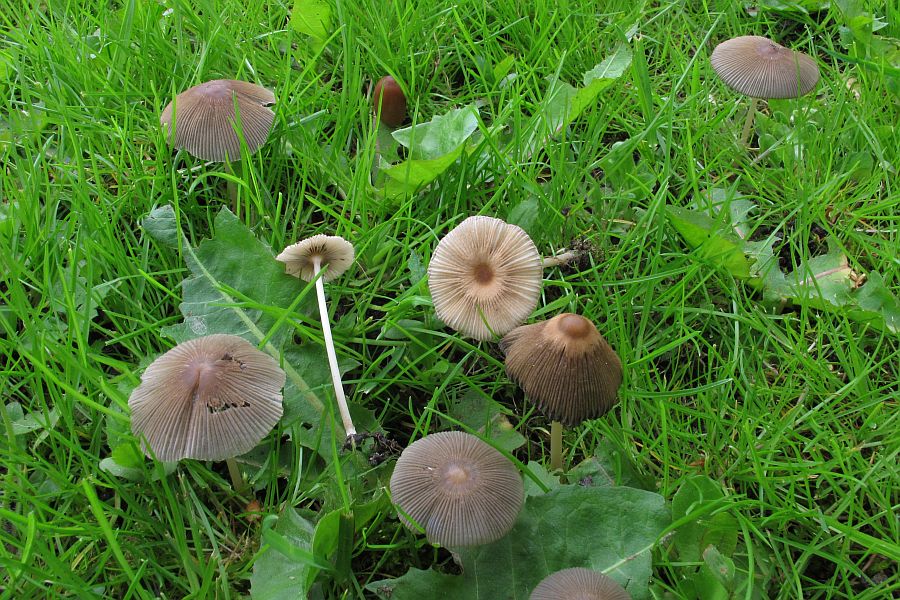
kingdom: Fungi
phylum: Basidiomycota
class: Agaricomycetes
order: Agaricales
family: Psathyrellaceae
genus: Parasola
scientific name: Parasola auricoma
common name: hansens hjulhat
